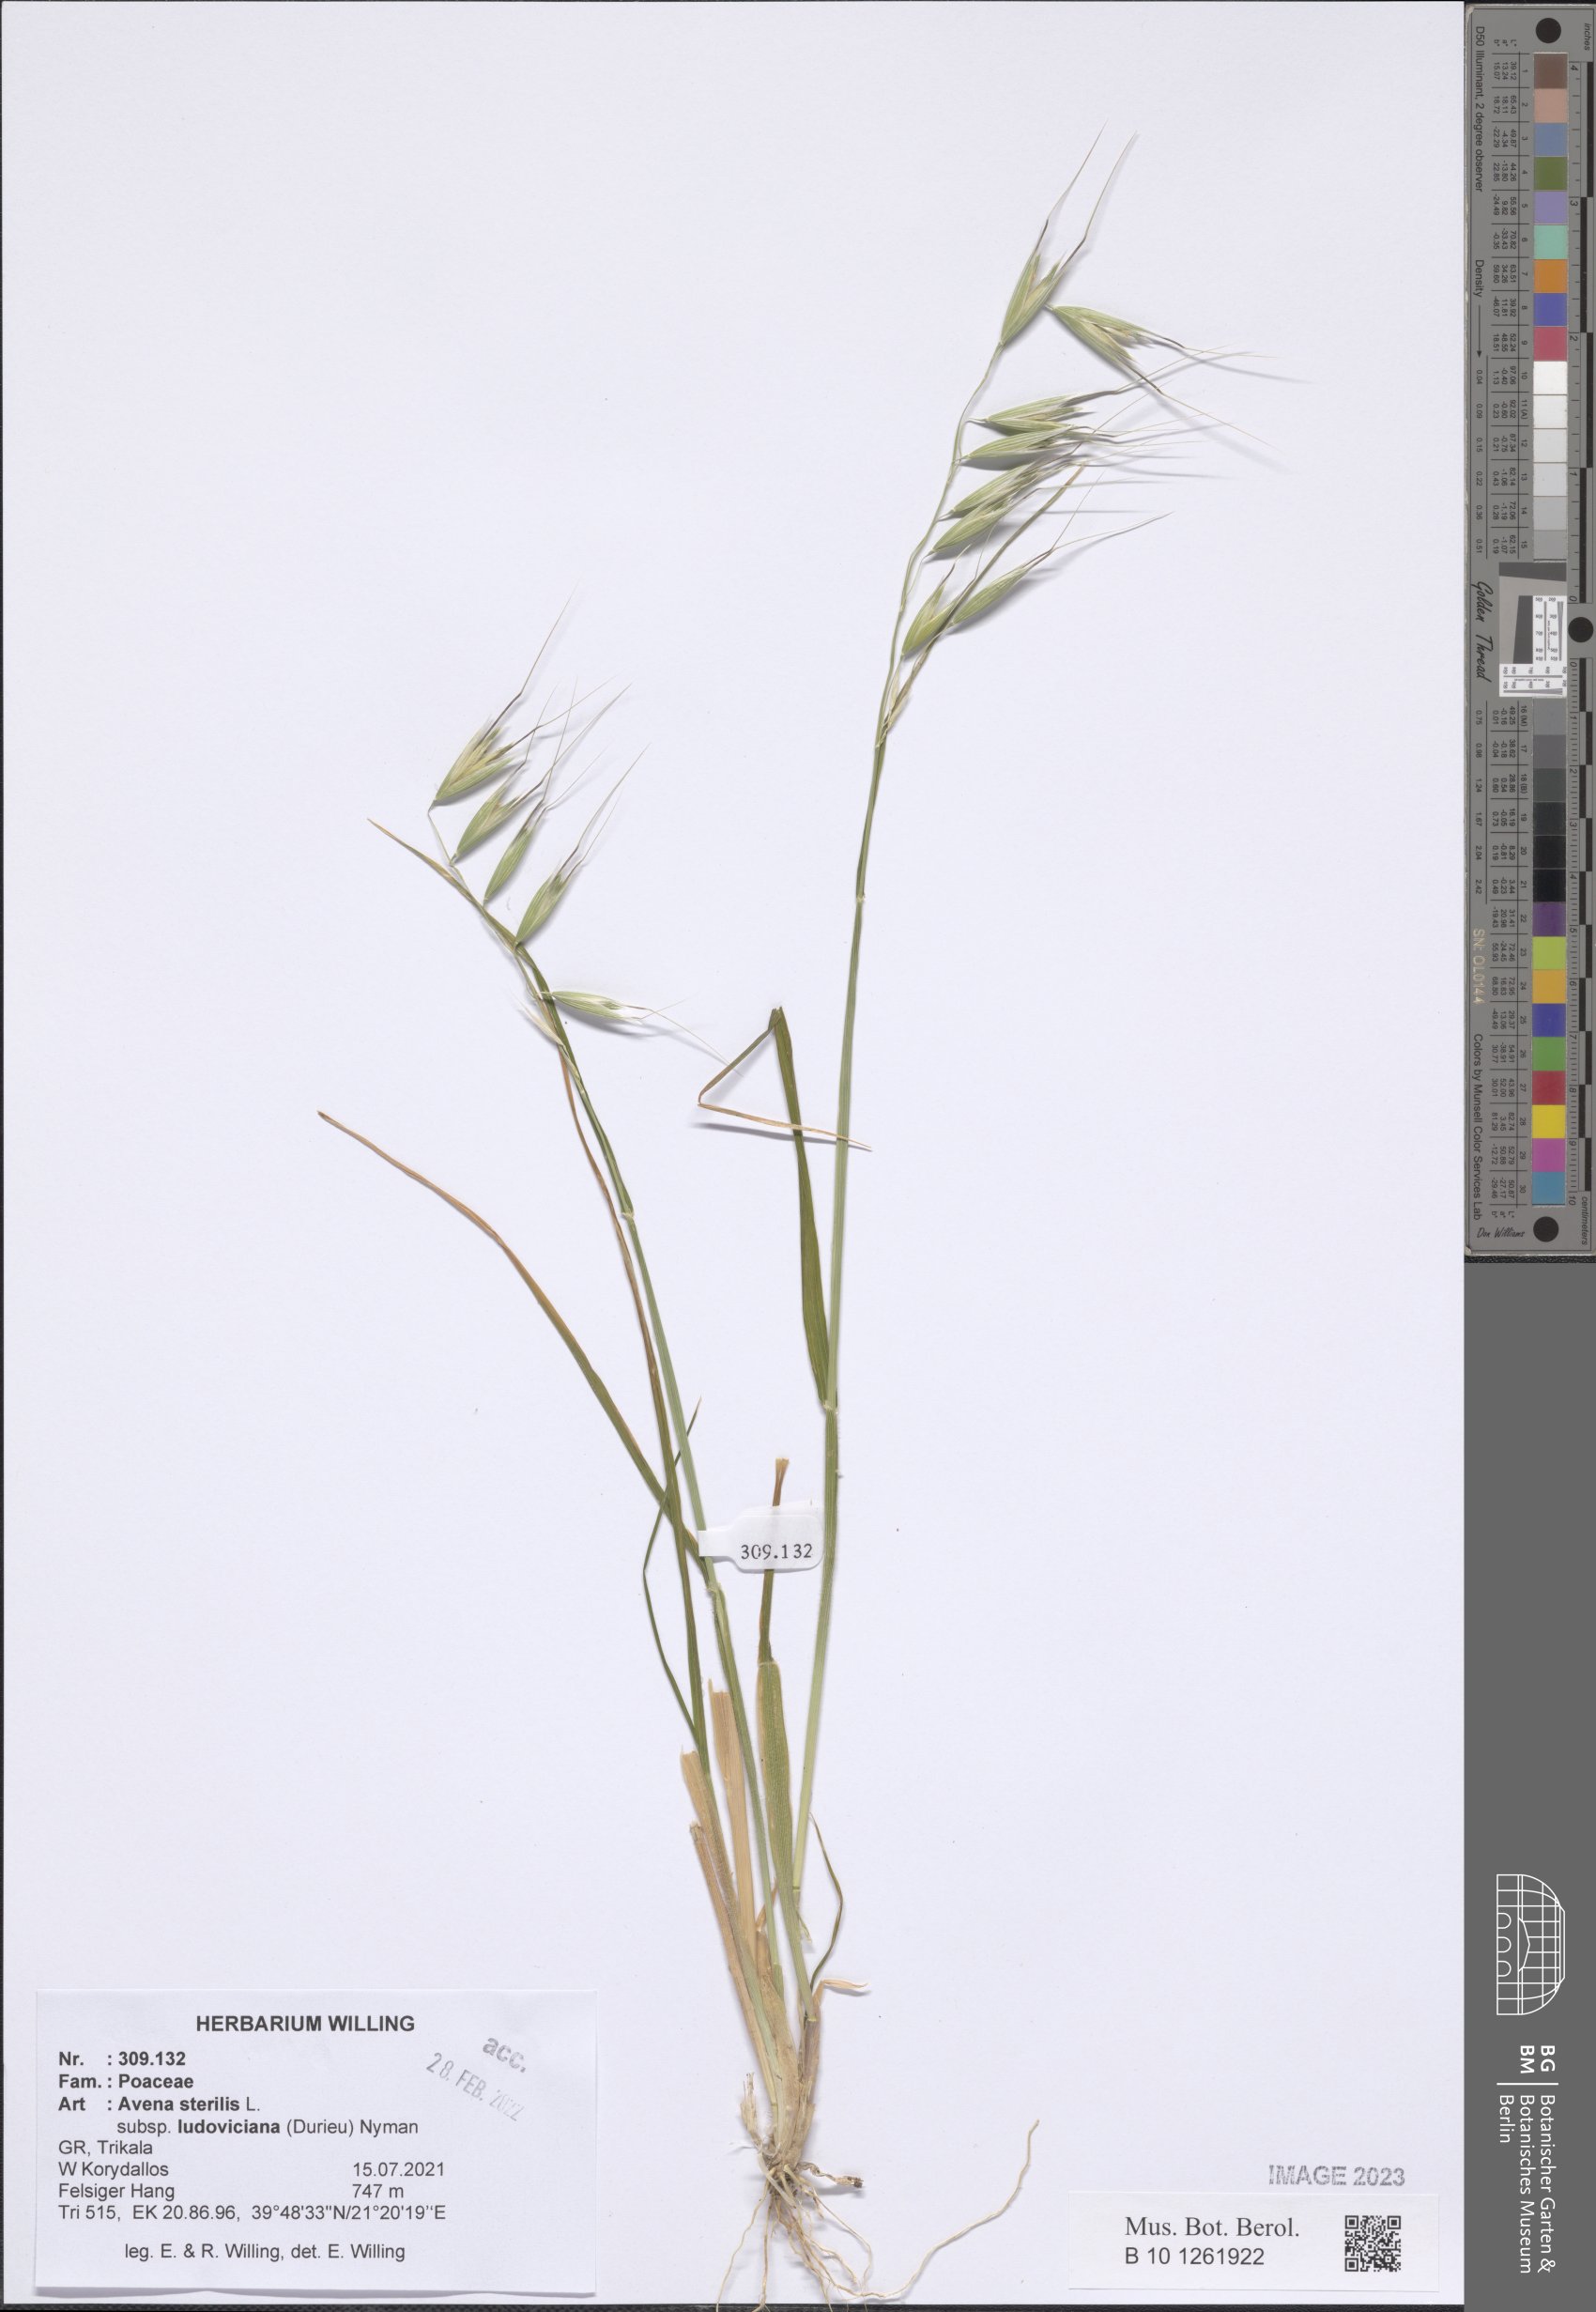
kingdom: Plantae
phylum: Tracheophyta
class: Liliopsida
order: Poales
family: Poaceae
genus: Avena
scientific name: Avena sterilis
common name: Animated oat
